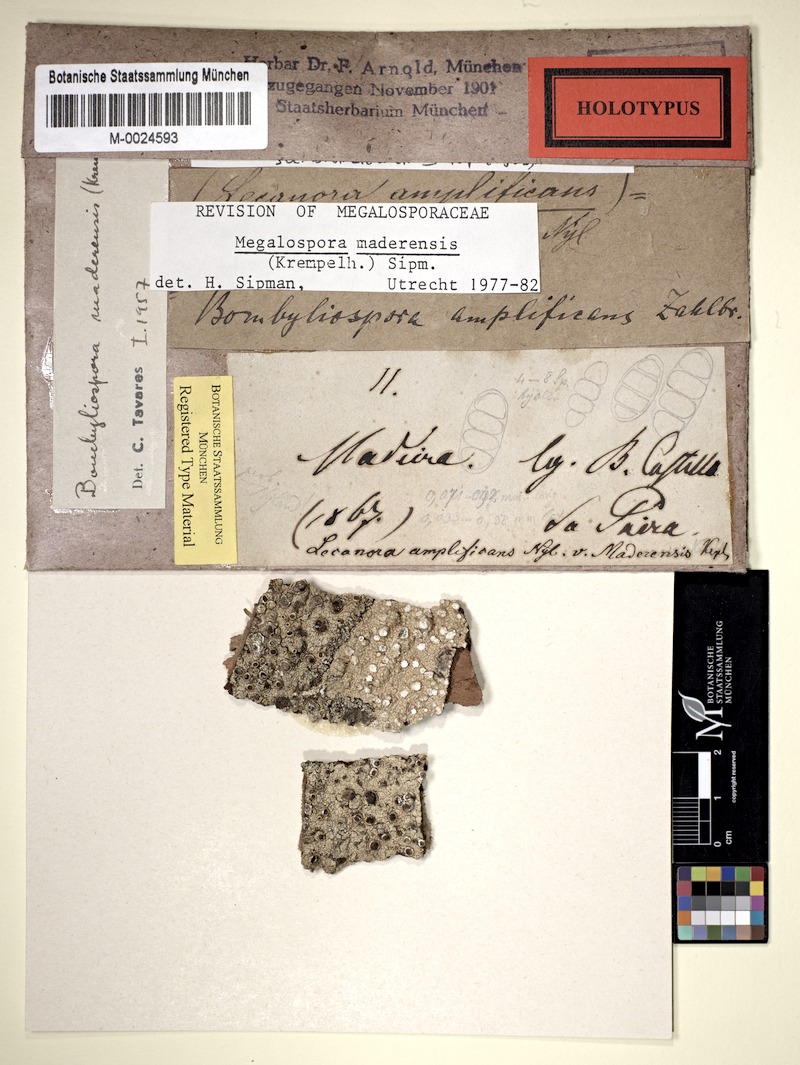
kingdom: Fungi
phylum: Ascomycota
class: Lecanoromycetes
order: Teloschistales
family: Megalosporaceae
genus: Megalospora
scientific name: Megalospora maderensis
